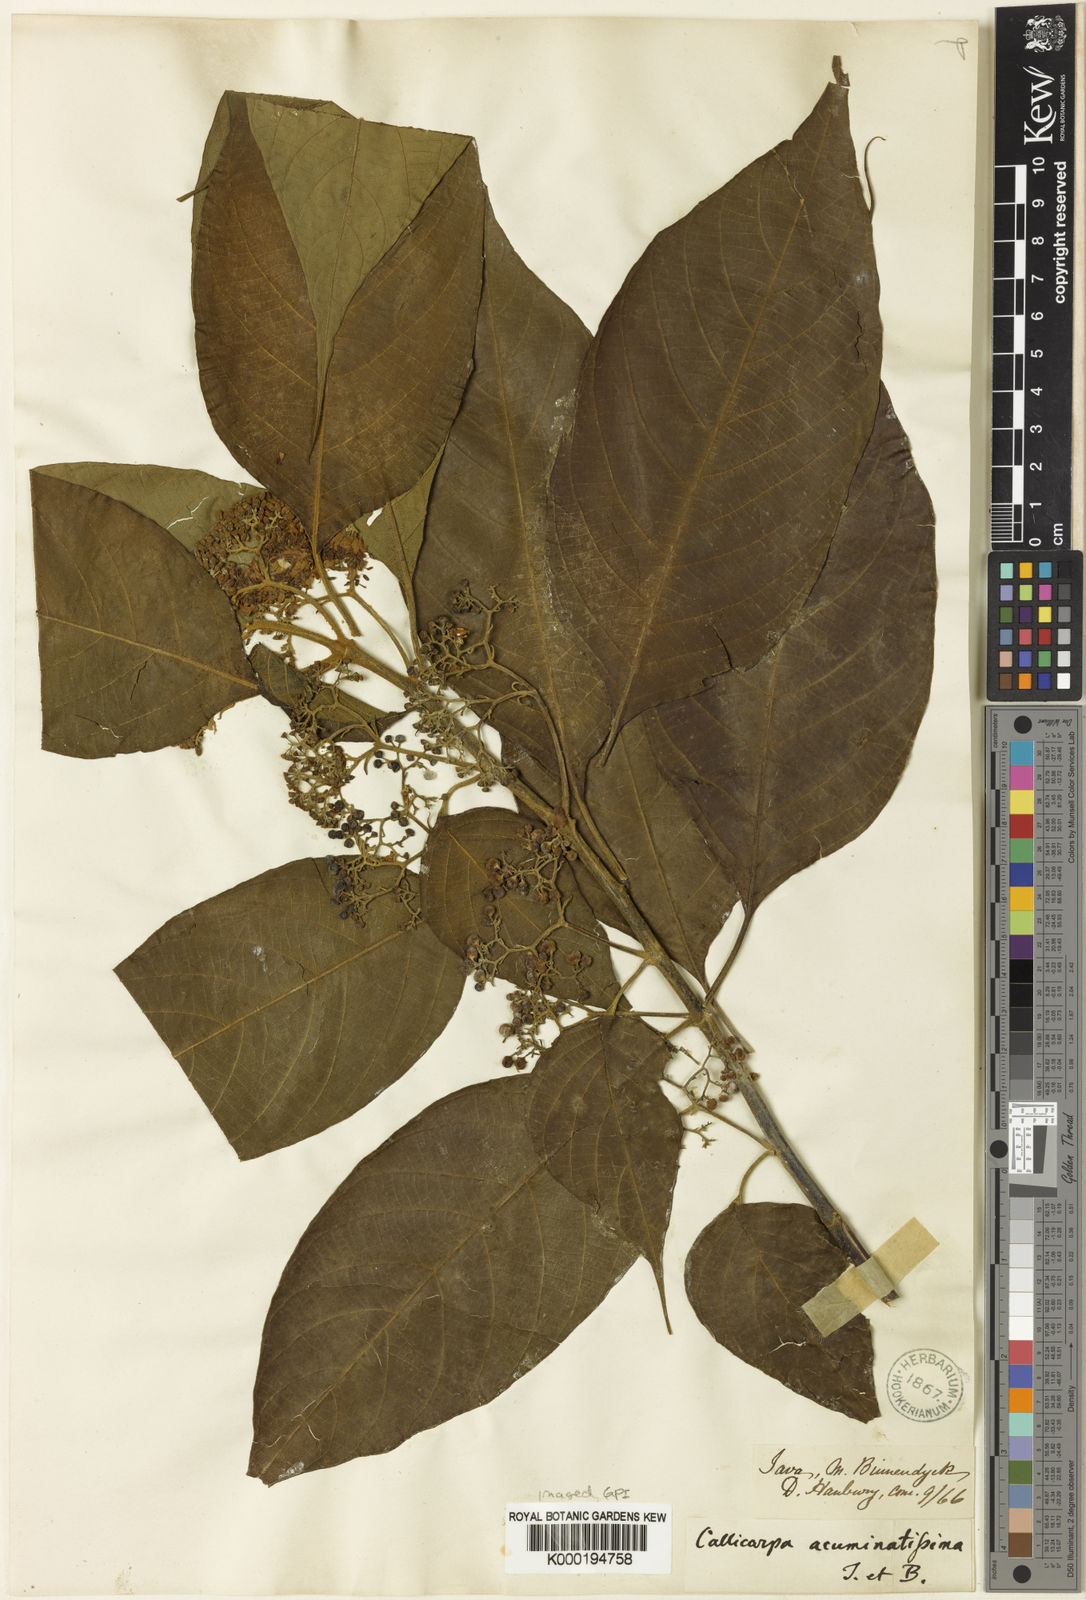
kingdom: Plantae
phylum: Tracheophyta
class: Magnoliopsida
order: Lamiales
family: Lamiaceae
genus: Callicarpa
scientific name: Callicarpa pentandra
